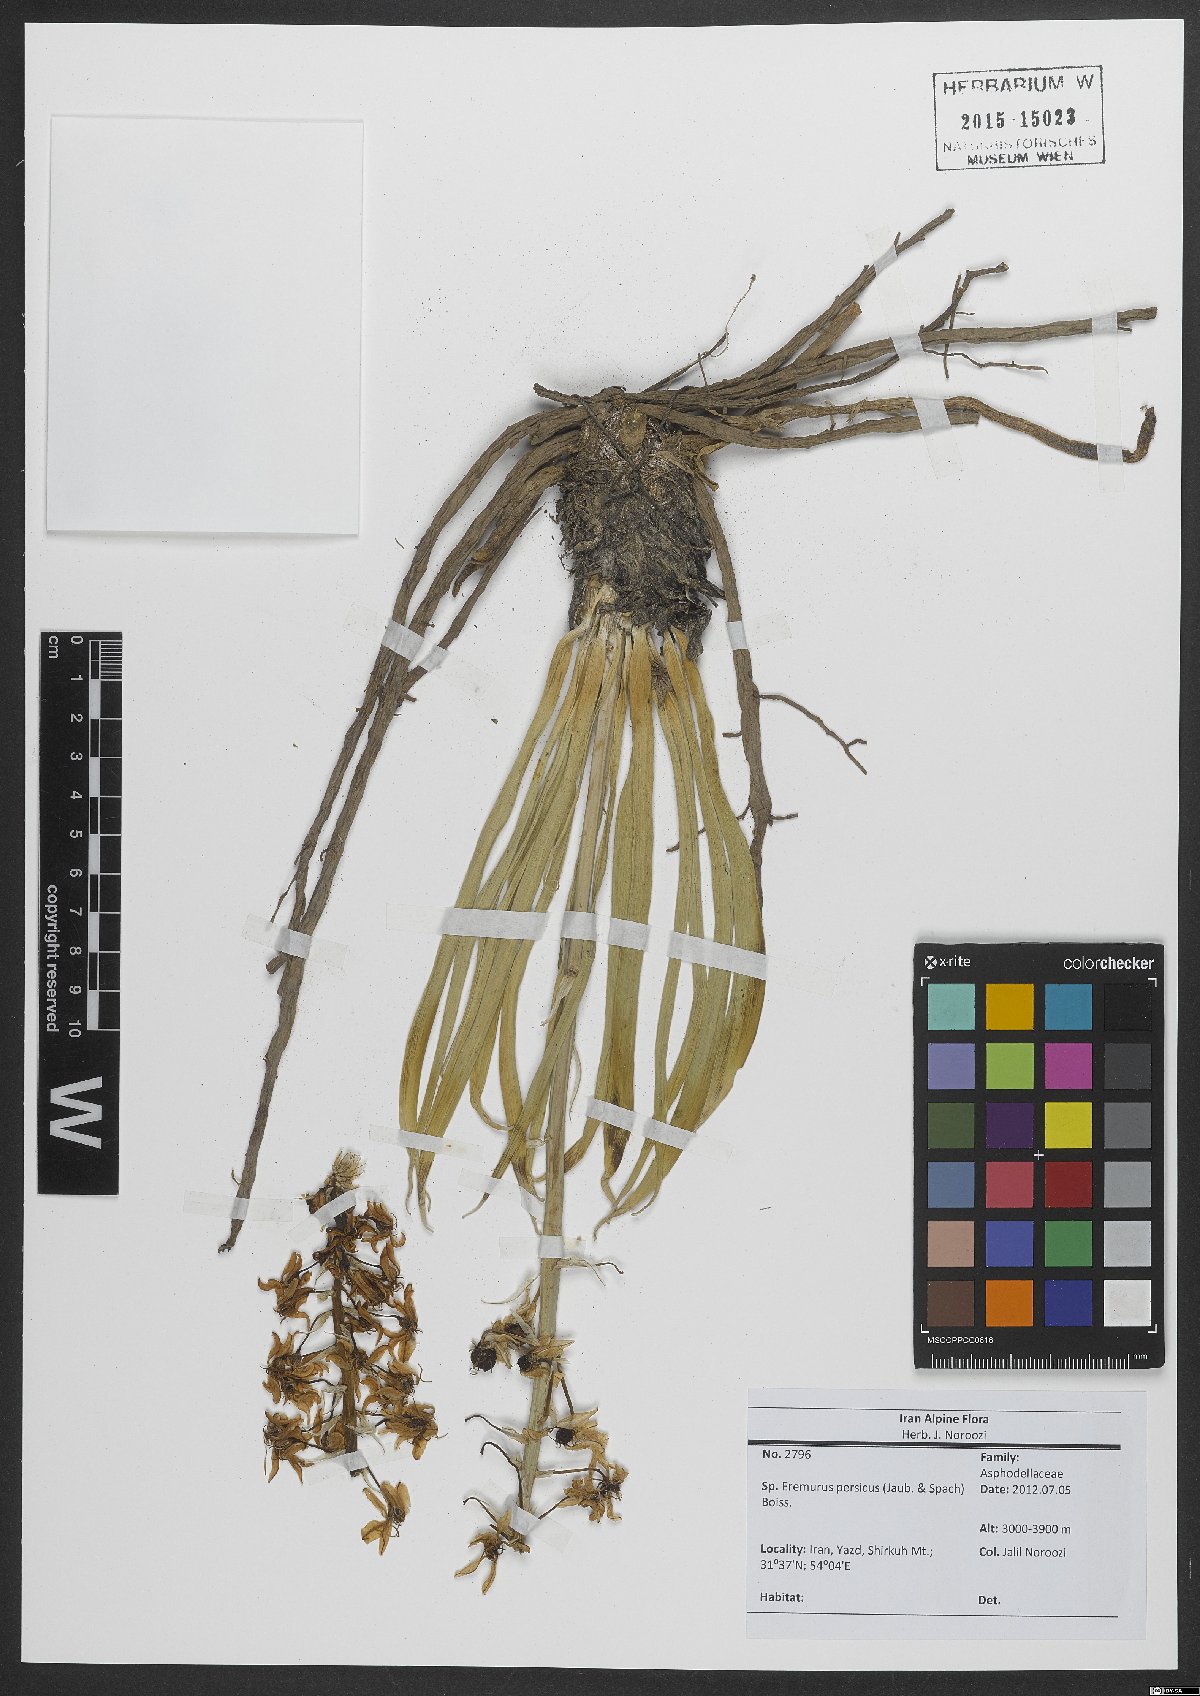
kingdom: Plantae
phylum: Tracheophyta
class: Liliopsida
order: Asparagales
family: Asphodelaceae
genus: Eremurus
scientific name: Eremurus persicus
